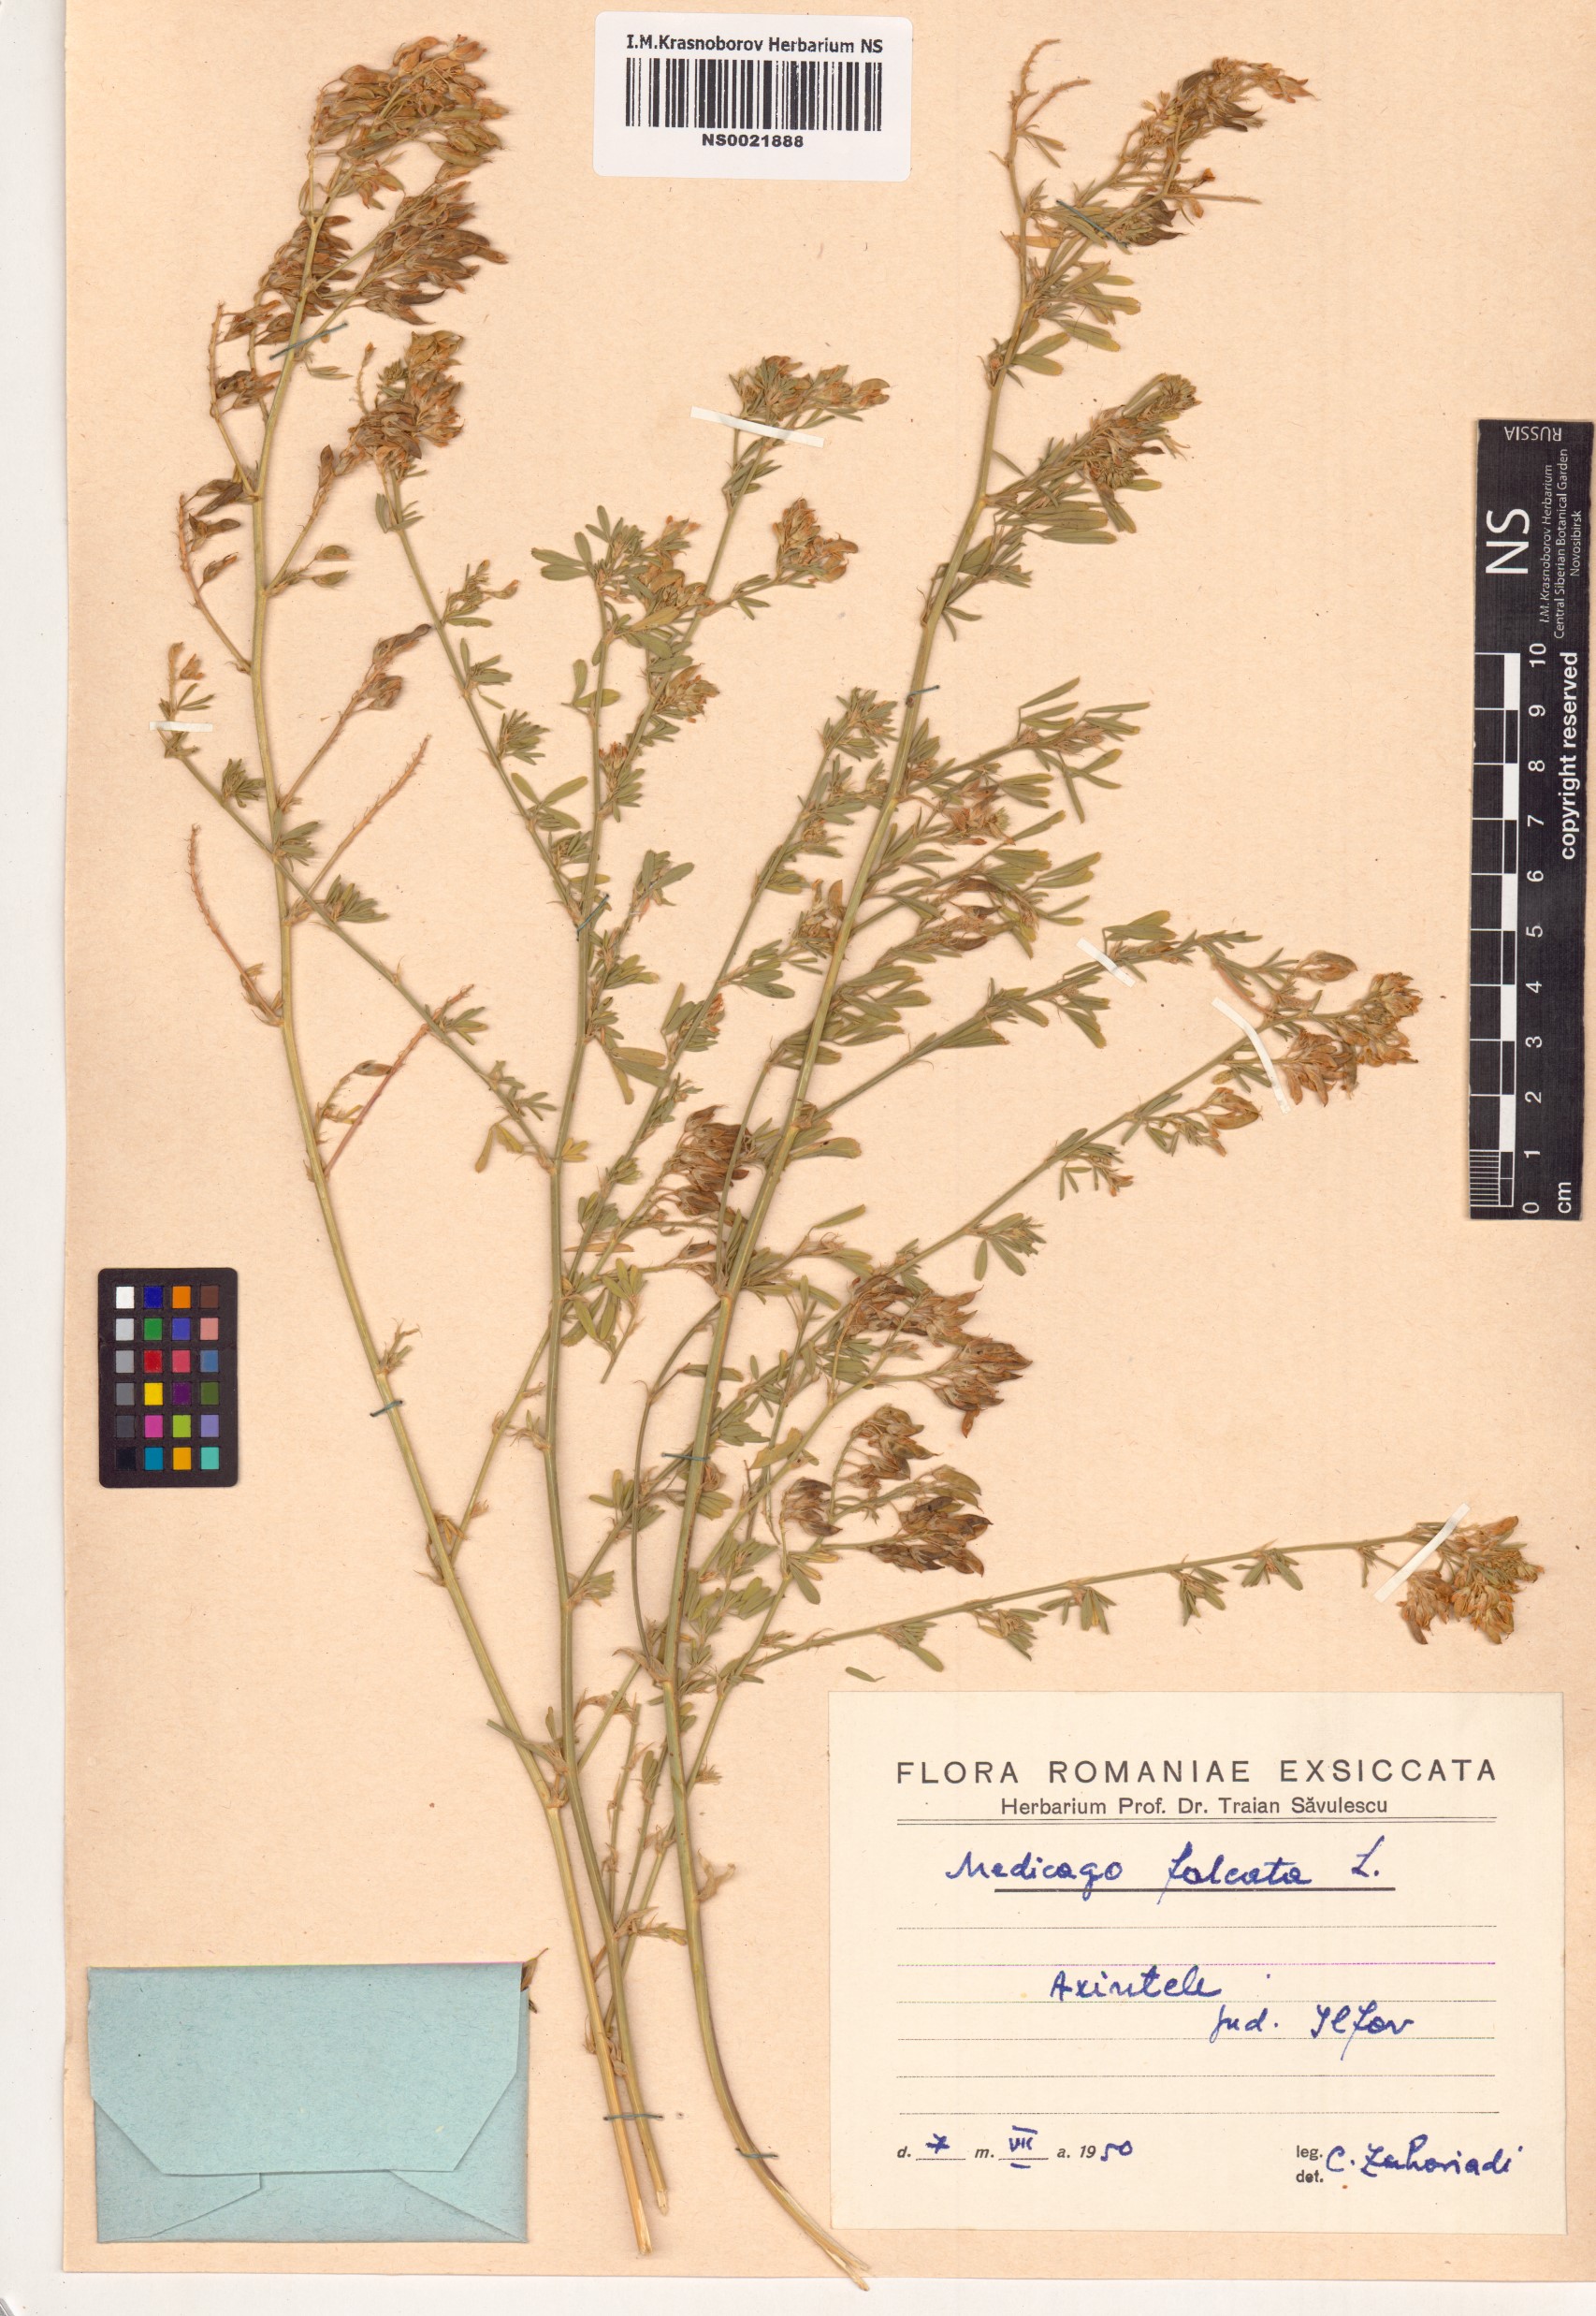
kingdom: Plantae
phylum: Tracheophyta
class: Magnoliopsida
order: Fabales
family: Fabaceae
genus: Medicago
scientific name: Medicago falcata
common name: Sickle medick
